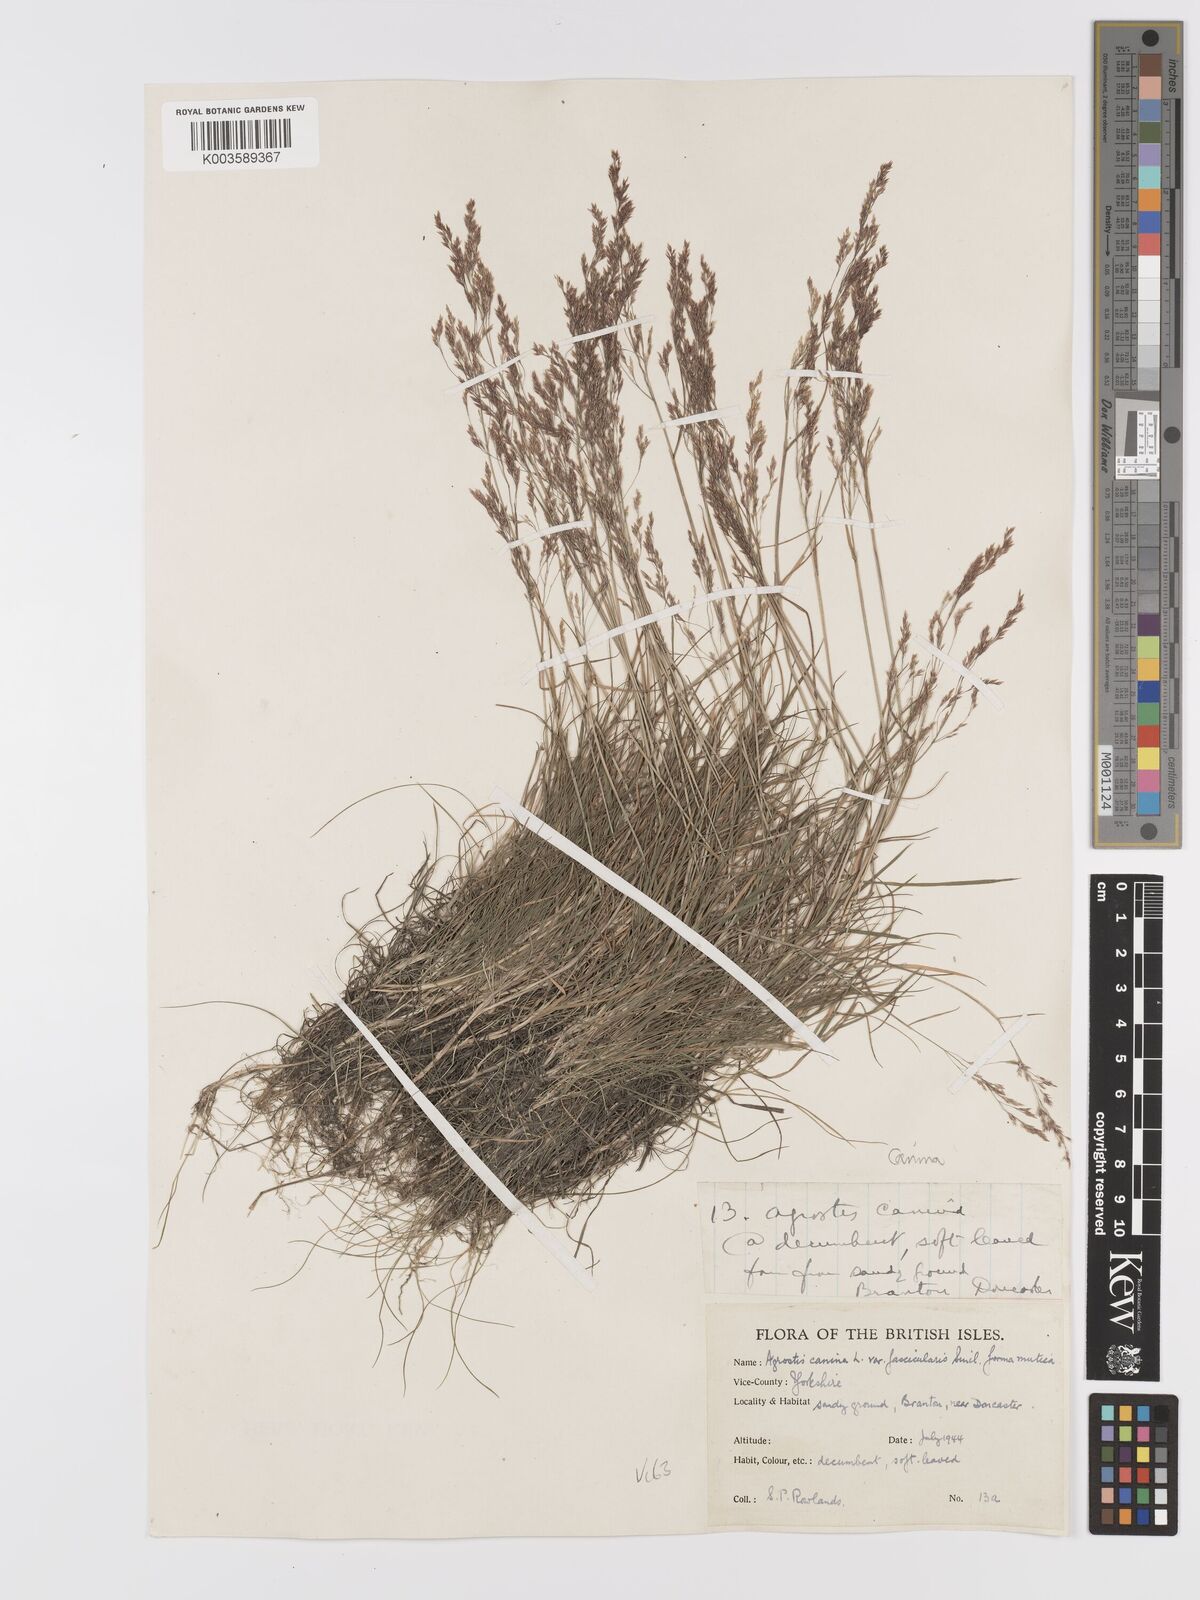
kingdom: Plantae
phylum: Tracheophyta
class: Liliopsida
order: Poales
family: Poaceae
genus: Agrostis
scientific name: Agrostis canina
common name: Velvet bent
